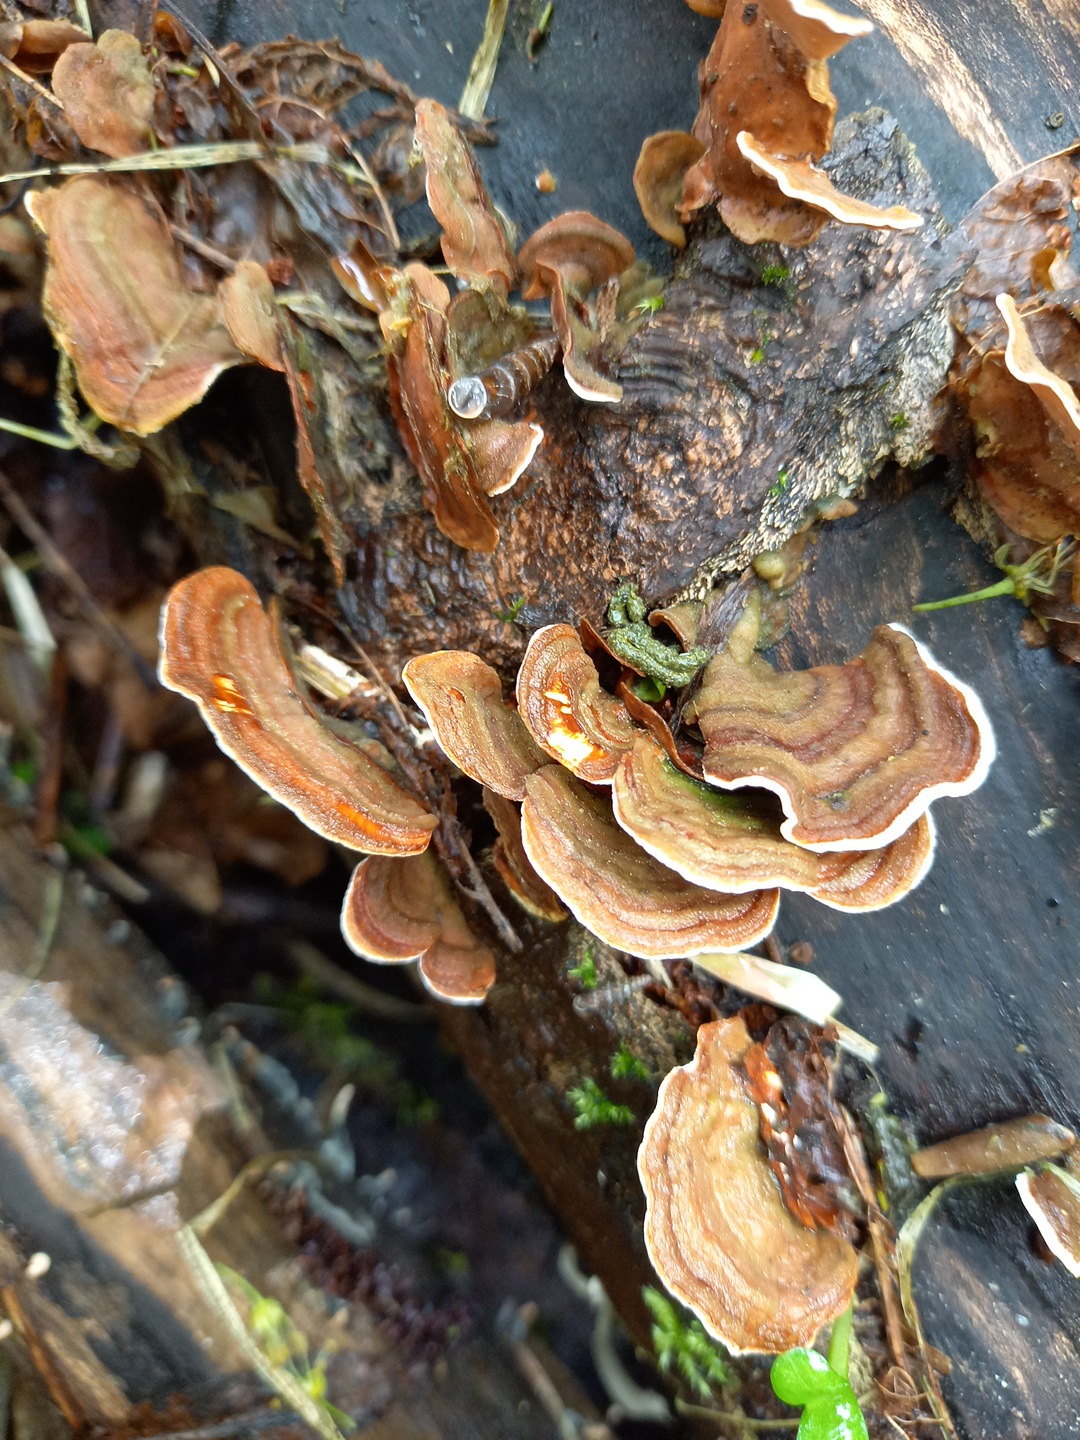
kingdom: Fungi
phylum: Basidiomycota
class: Agaricomycetes
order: Russulales
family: Stereaceae
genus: Stereum
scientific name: Stereum subtomentosum
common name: smuk lædersvamp
